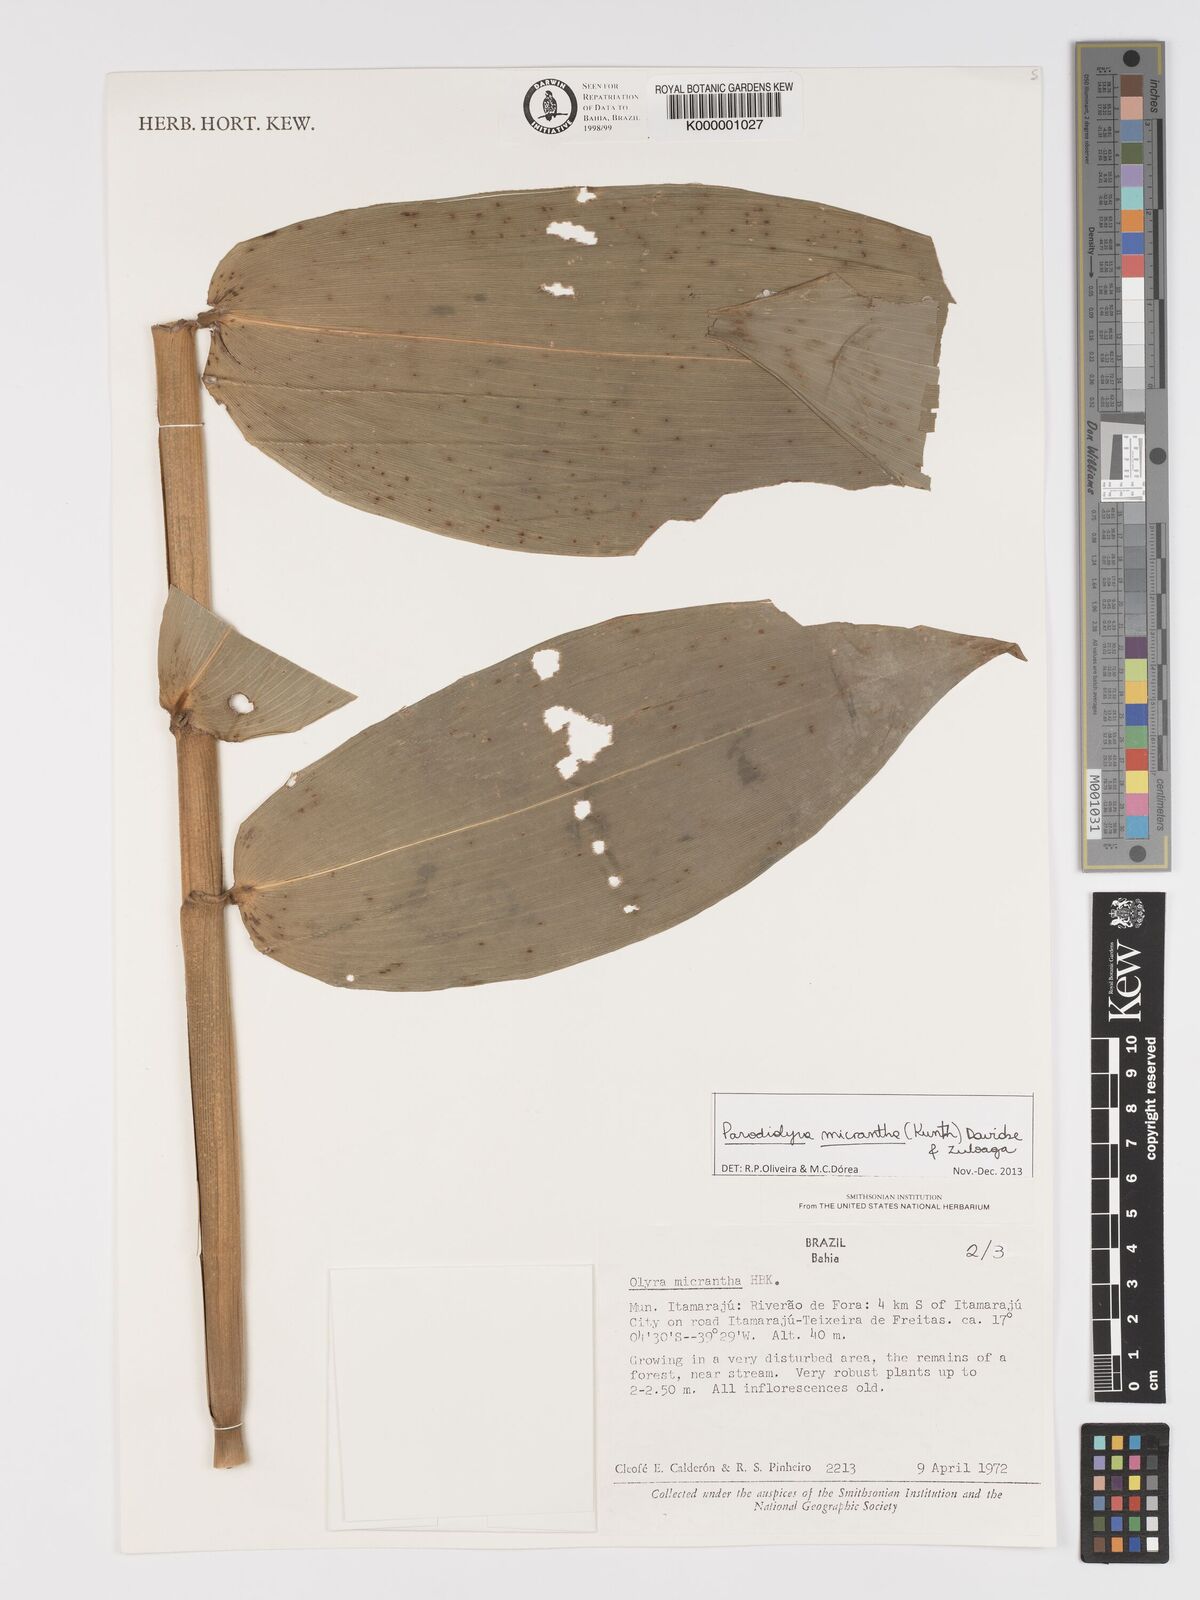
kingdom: Plantae
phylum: Tracheophyta
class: Liliopsida
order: Poales
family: Poaceae
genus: Taquara
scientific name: Taquara micrantha
